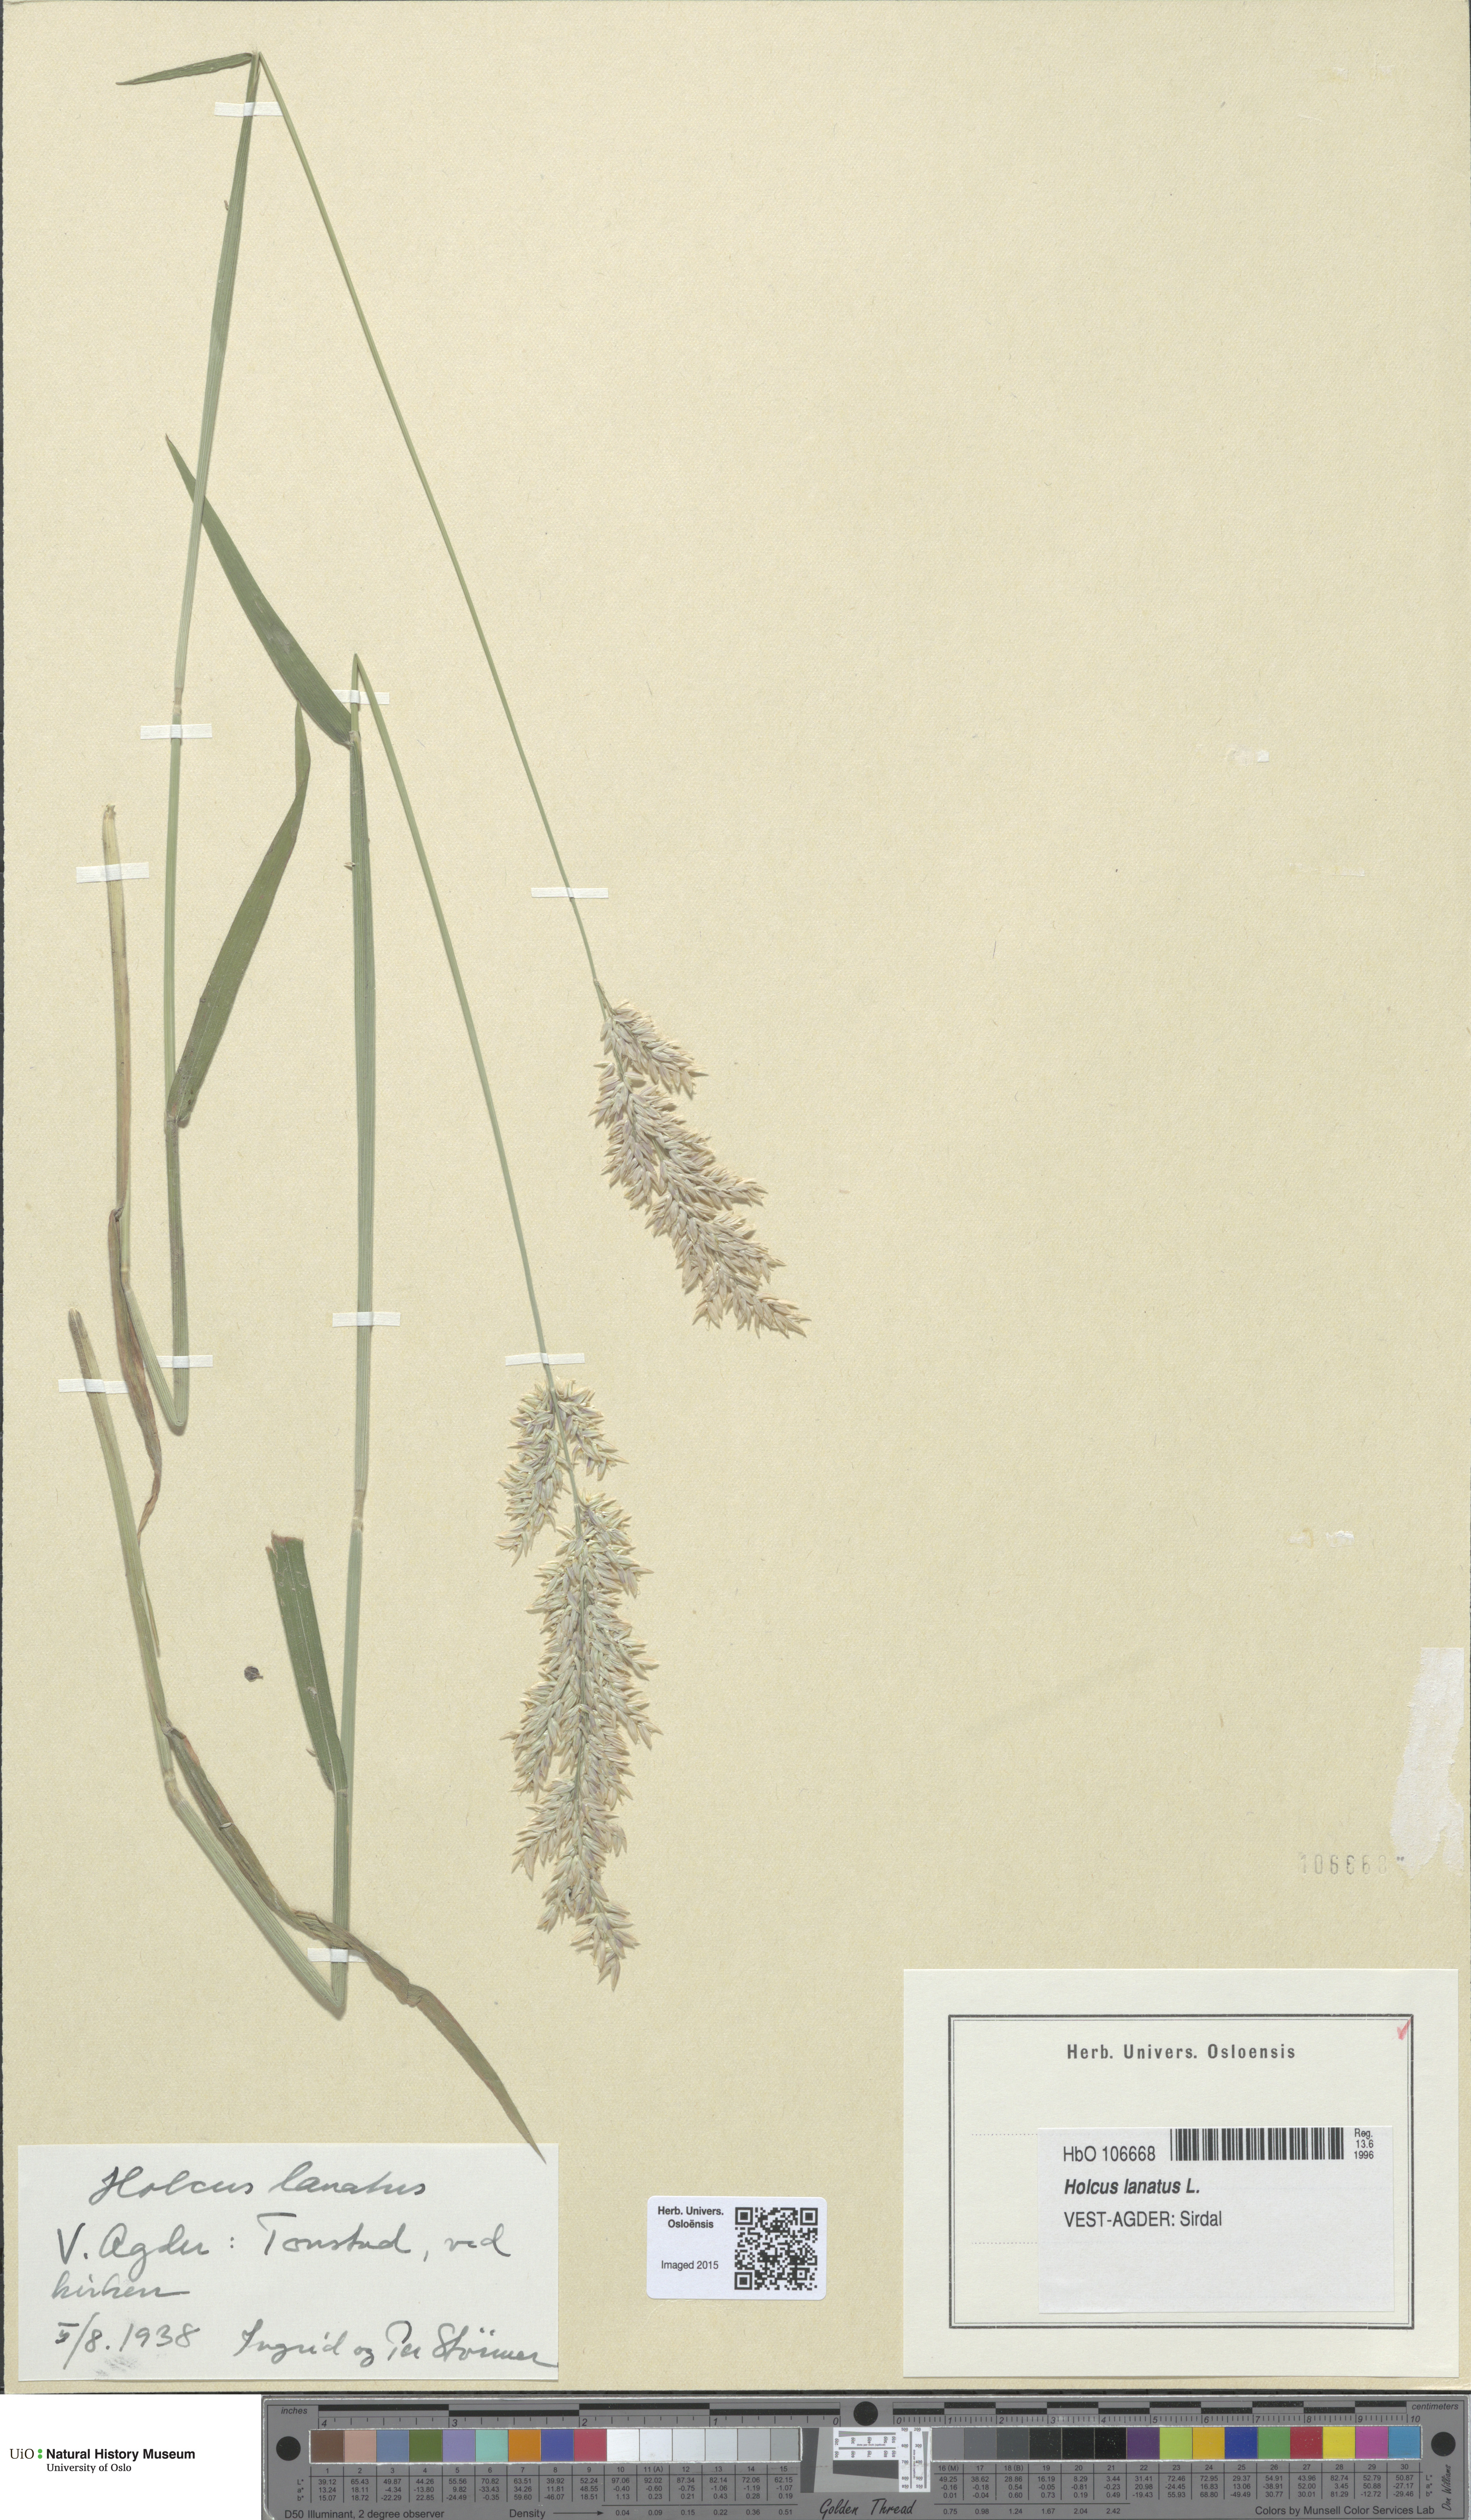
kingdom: Plantae
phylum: Tracheophyta
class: Liliopsida
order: Poales
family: Poaceae
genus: Holcus
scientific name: Holcus lanatus
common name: Yorkshire-fog
